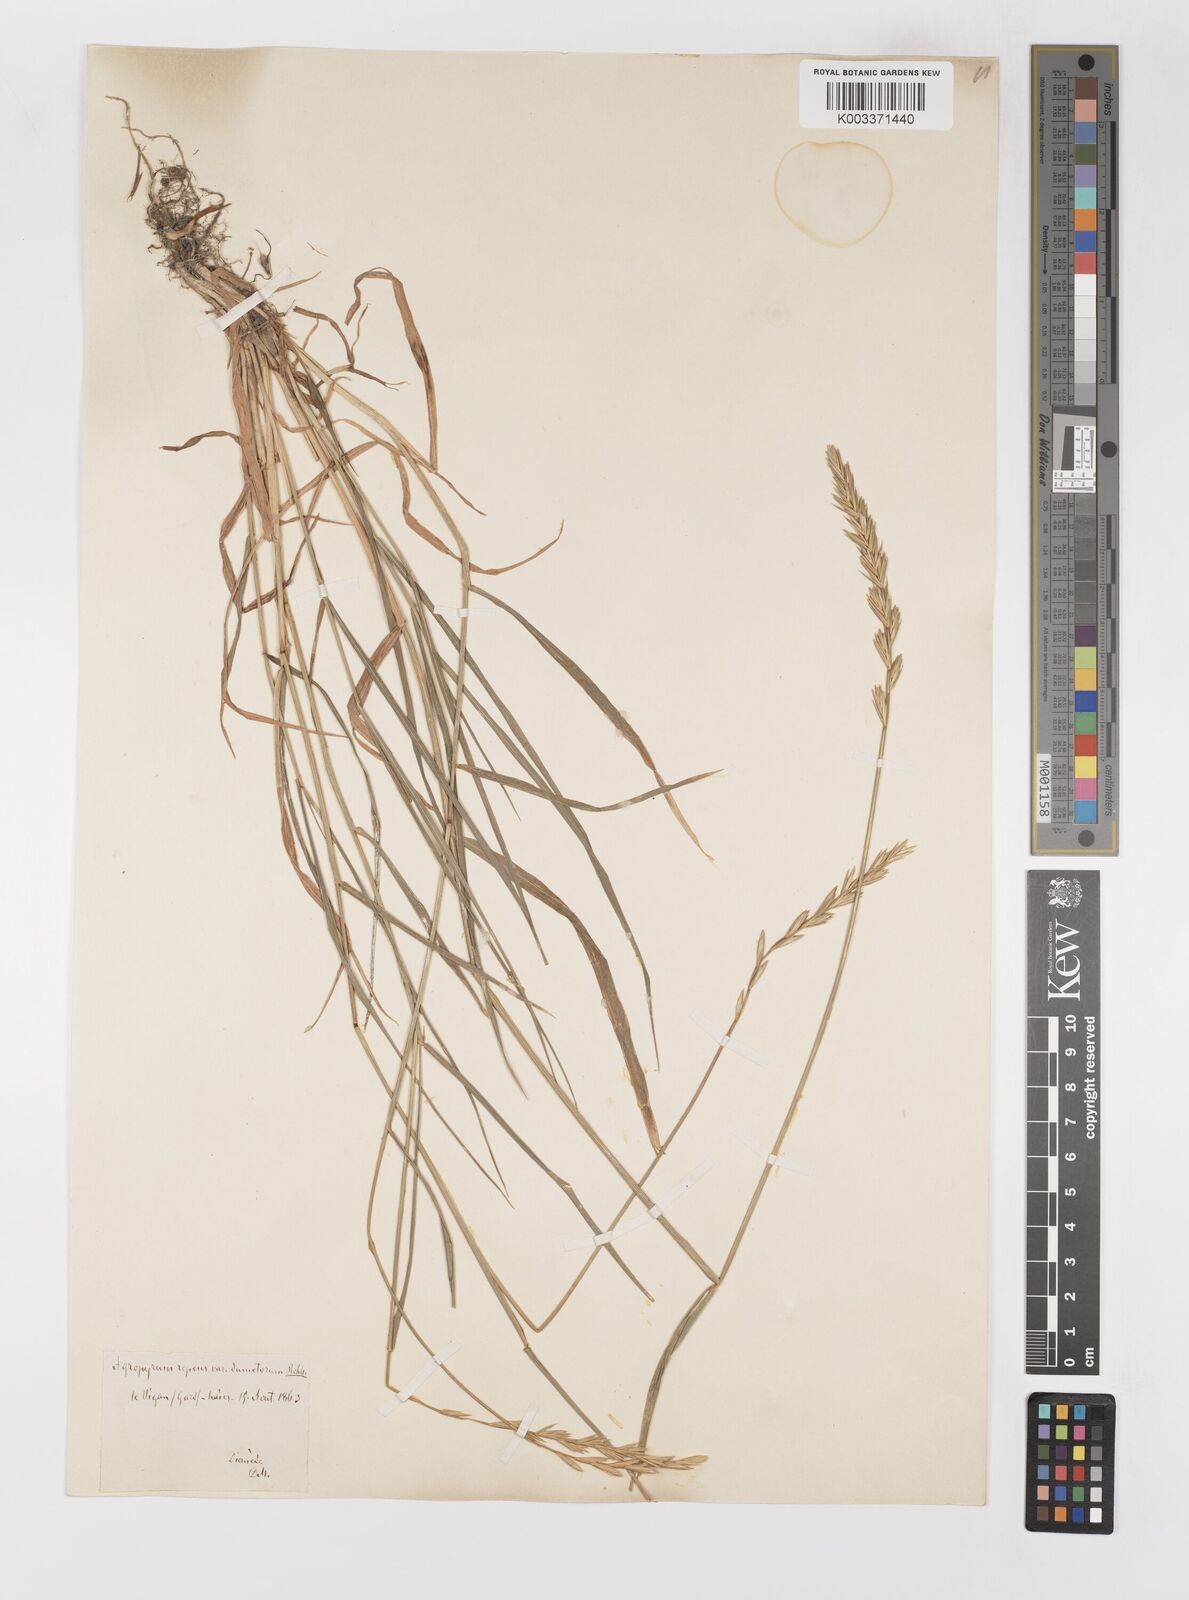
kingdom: Plantae
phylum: Tracheophyta
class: Liliopsida
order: Poales
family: Poaceae
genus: Elymus
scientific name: Elymus repens
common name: Quackgrass
